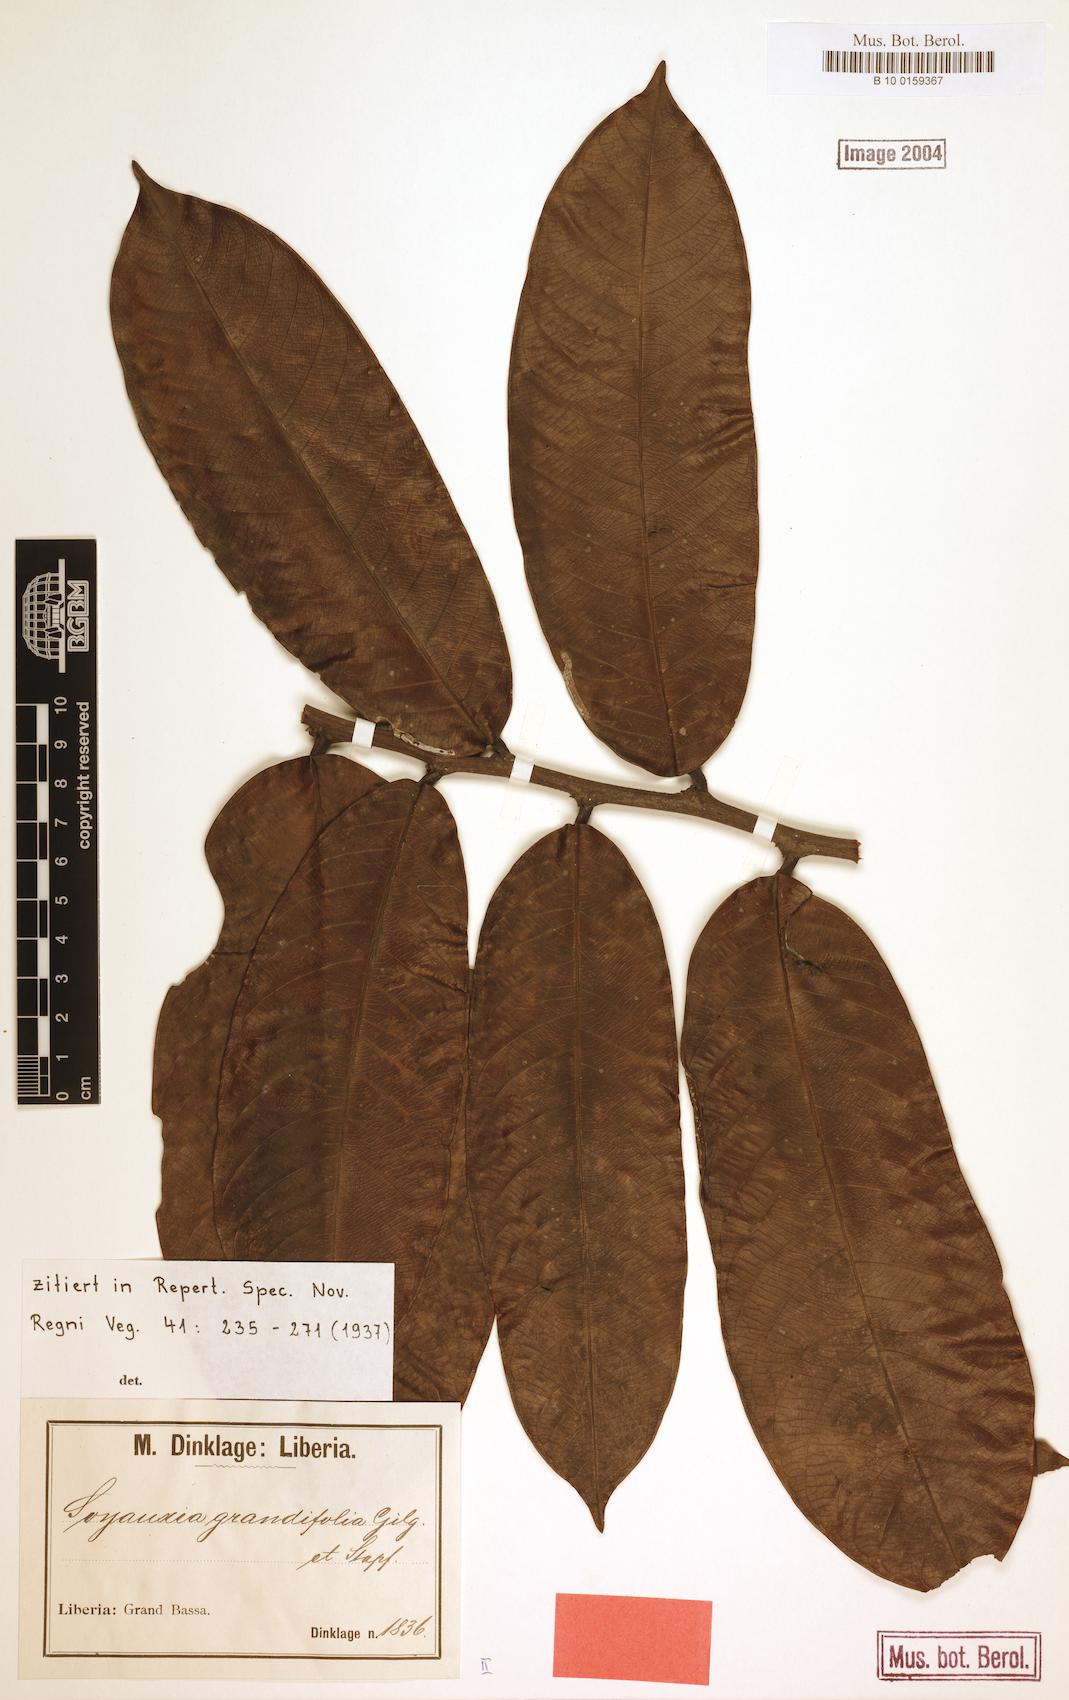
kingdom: Plantae
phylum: Tracheophyta
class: Magnoliopsida
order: Saxifragales
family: Peridiscaceae
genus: Soyauxia
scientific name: Soyauxia grandifolia
